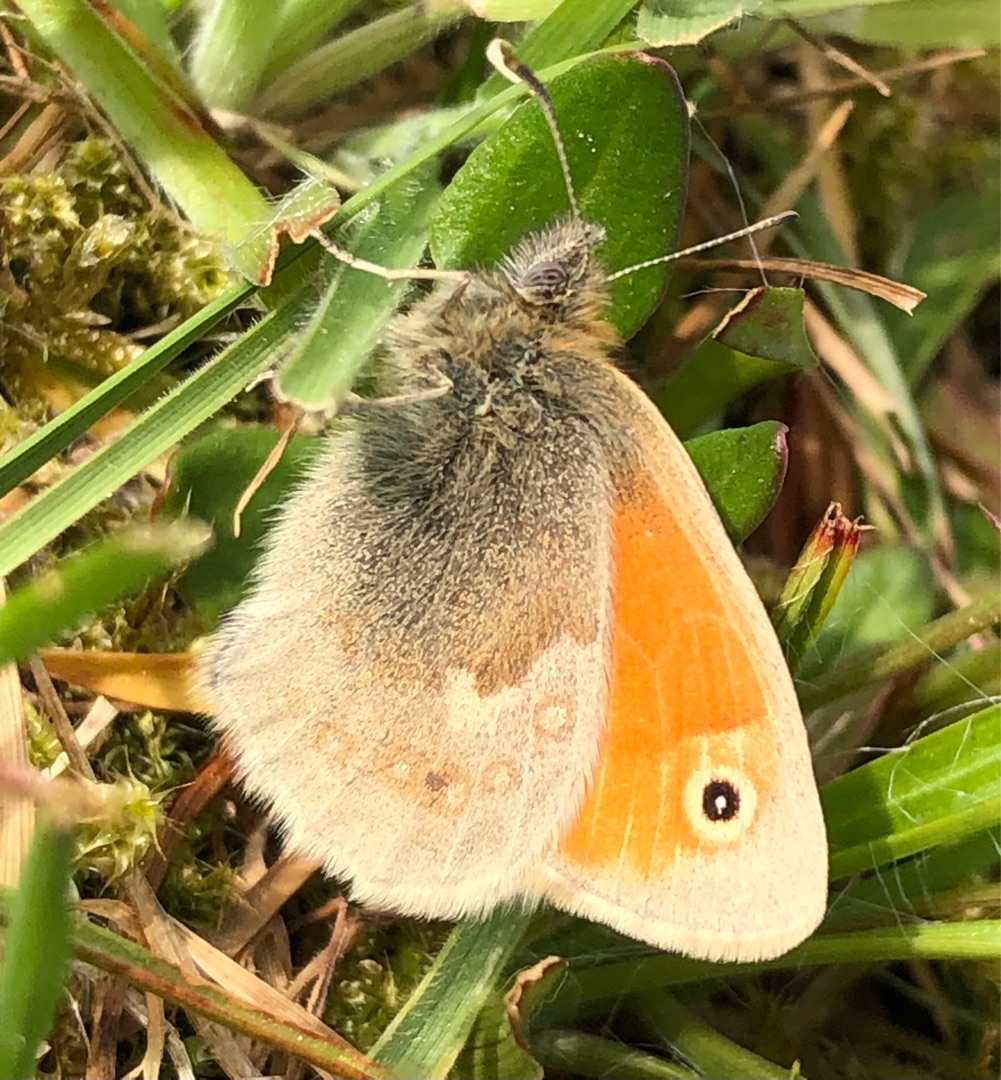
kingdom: Animalia
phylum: Arthropoda
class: Insecta
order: Lepidoptera
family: Nymphalidae
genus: Coenonympha
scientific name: Coenonympha pamphilus
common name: Okkergul randøje
